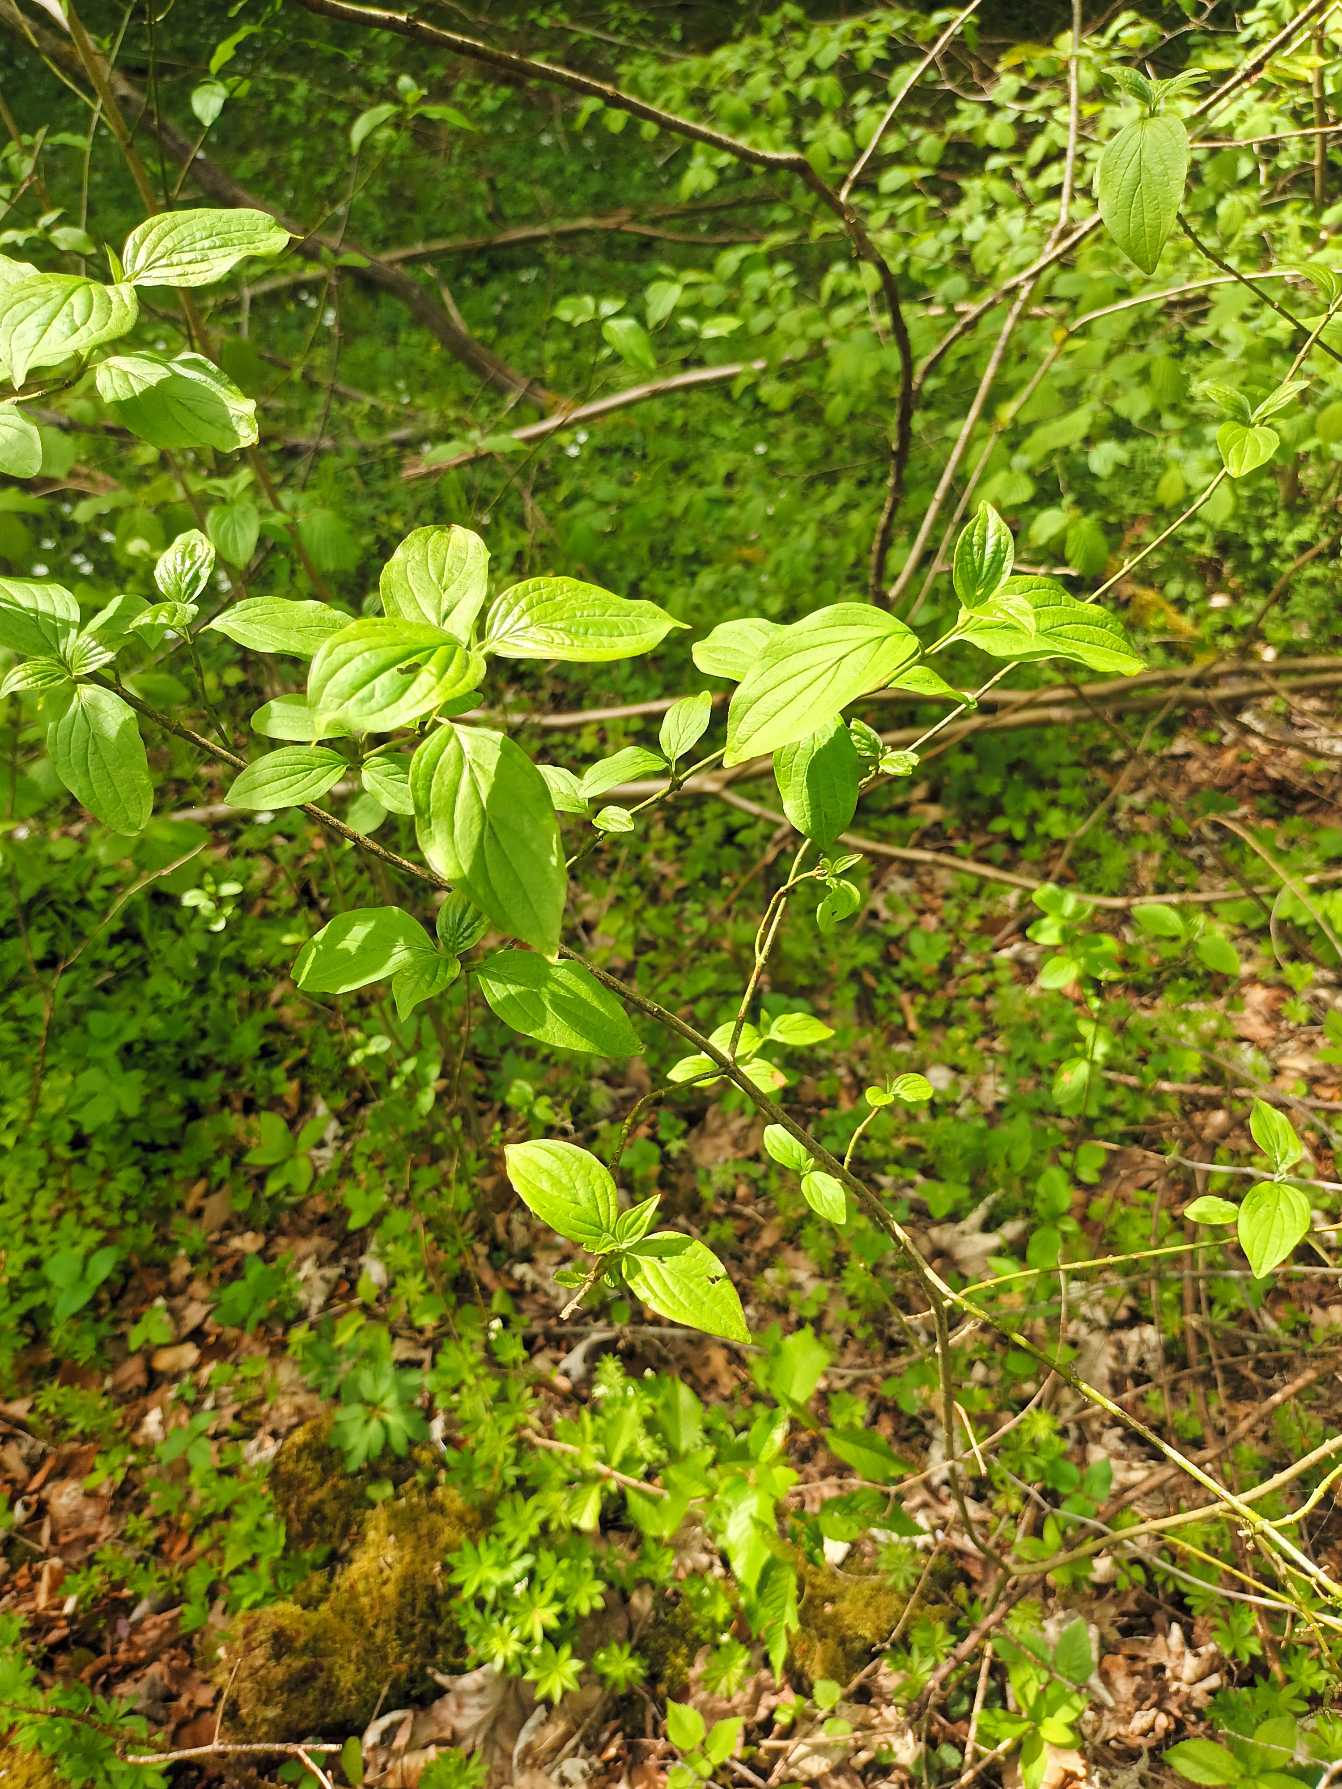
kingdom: Plantae
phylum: Tracheophyta
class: Magnoliopsida
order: Cornales
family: Cornaceae
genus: Cornus
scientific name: Cornus sanguinea
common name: Rød kornel
